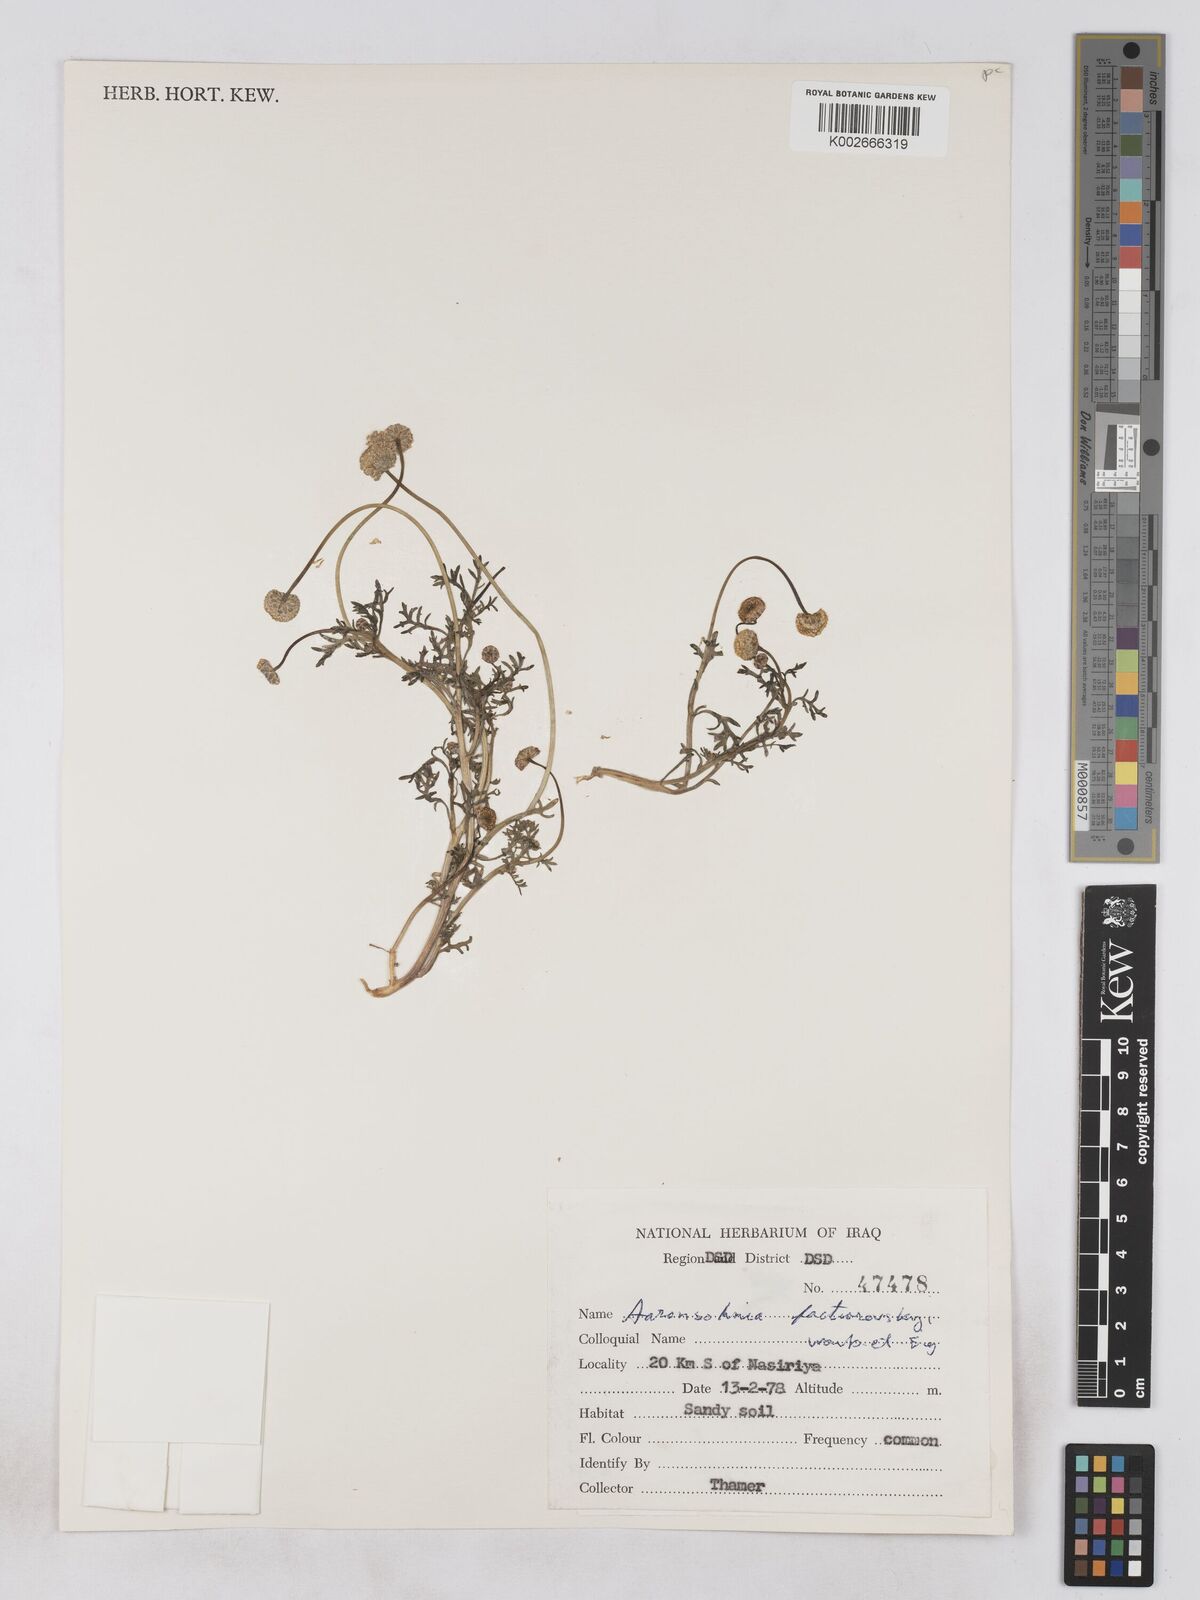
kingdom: Plantae
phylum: Tracheophyta
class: Magnoliopsida
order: Asterales
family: Asteraceae
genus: Otoglyphis
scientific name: Otoglyphis factorovskyi
